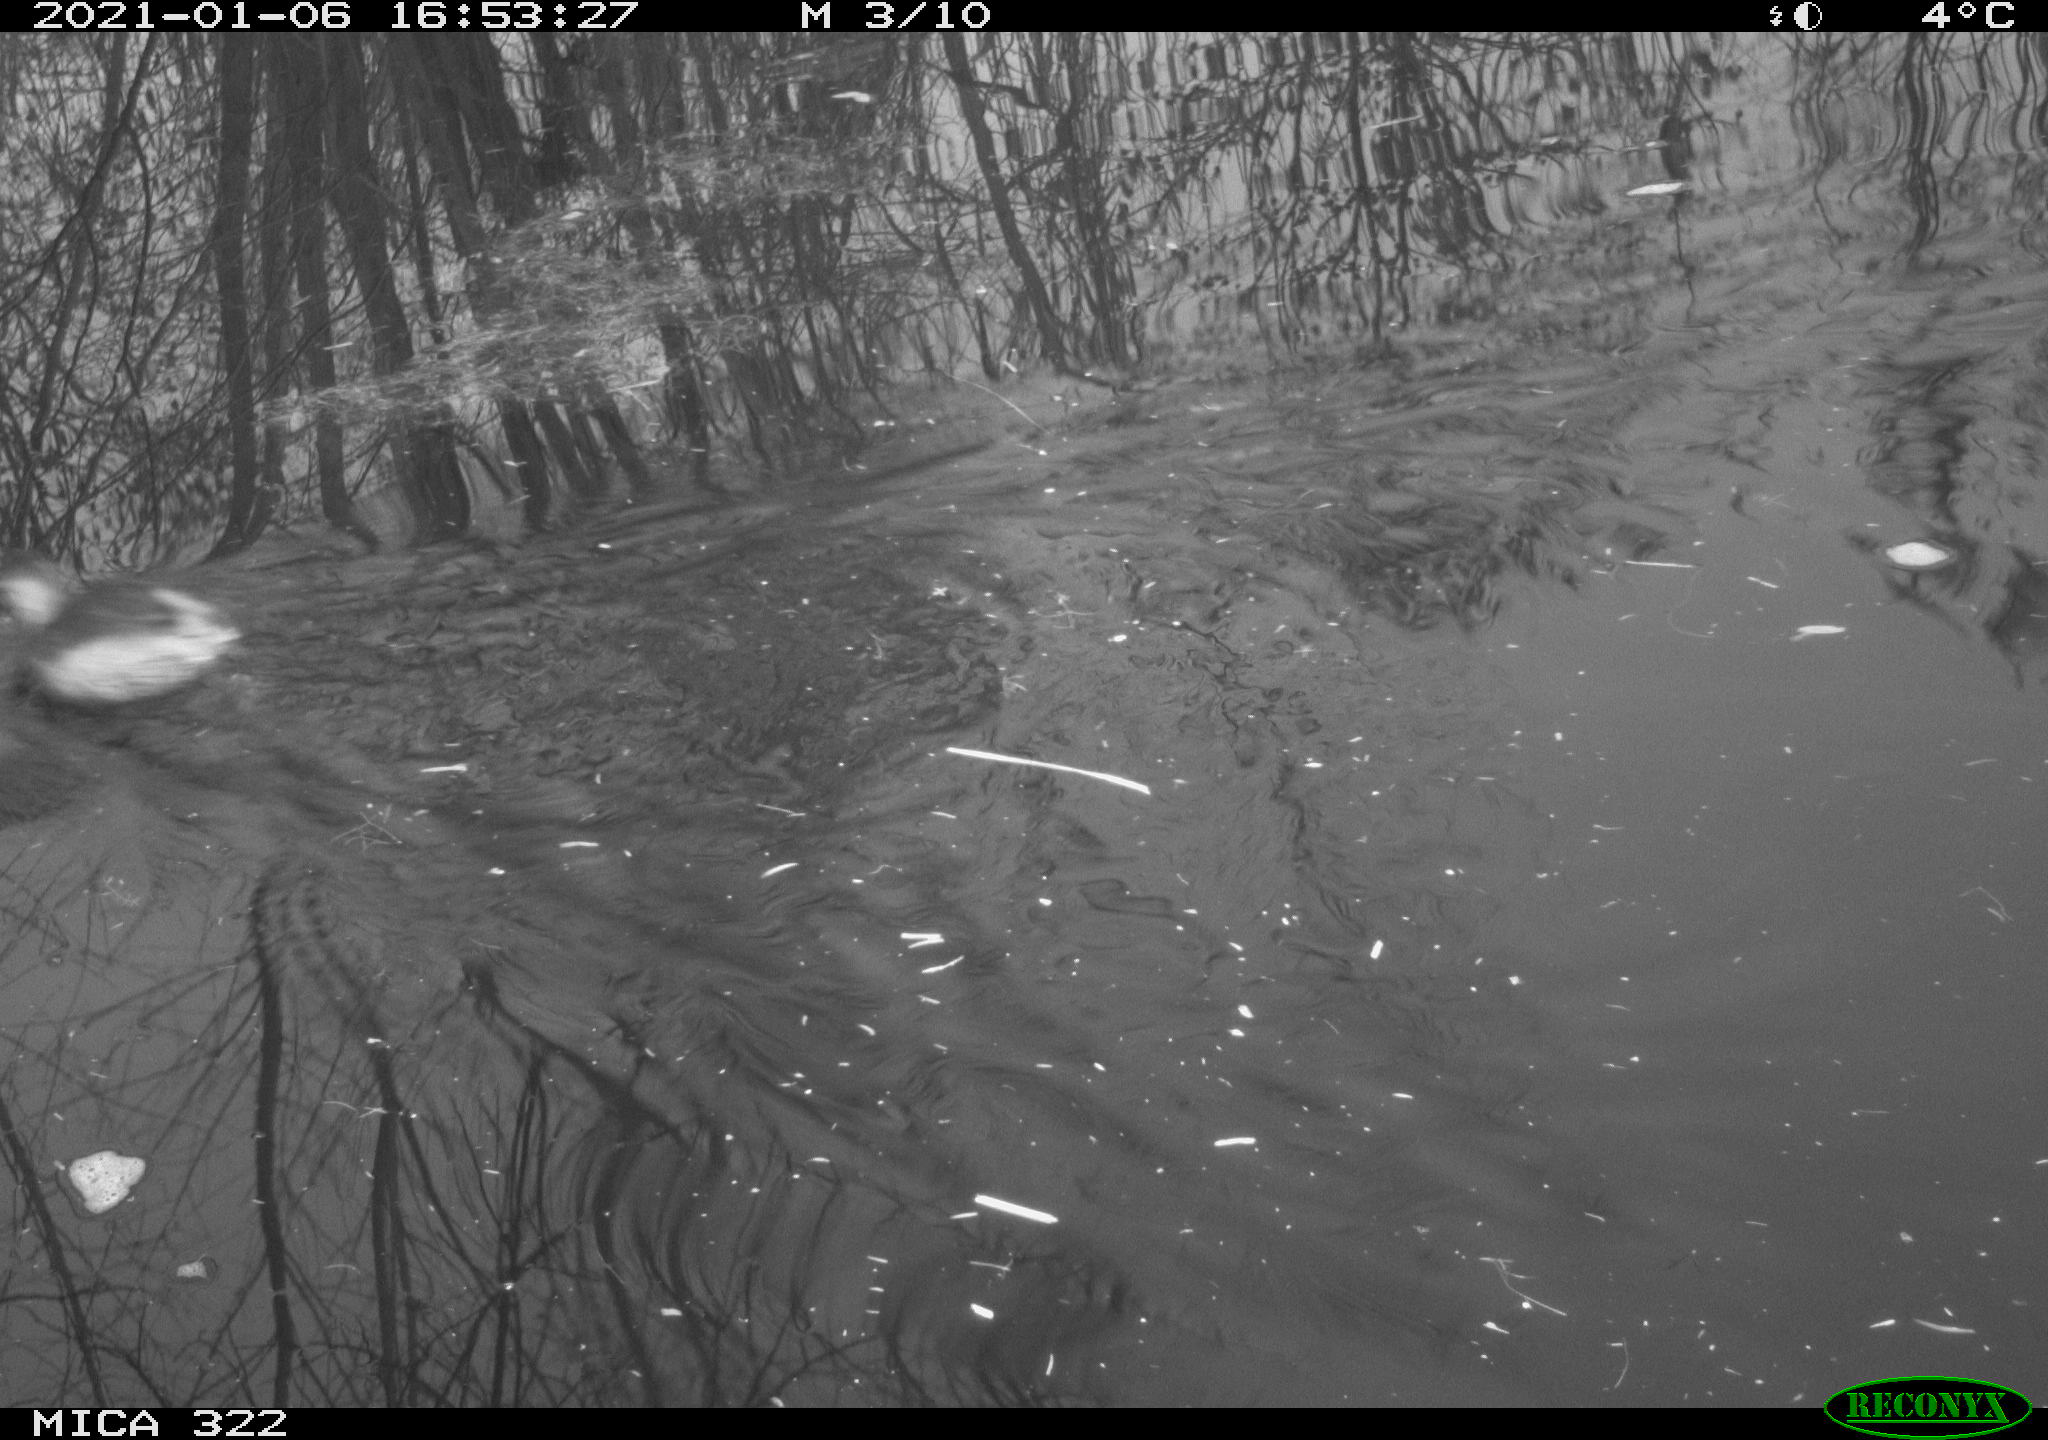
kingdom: Animalia
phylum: Chordata
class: Aves
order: Podicipediformes
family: Podicipedidae
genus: Tachybaptus
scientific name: Tachybaptus ruficollis
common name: Little grebe
